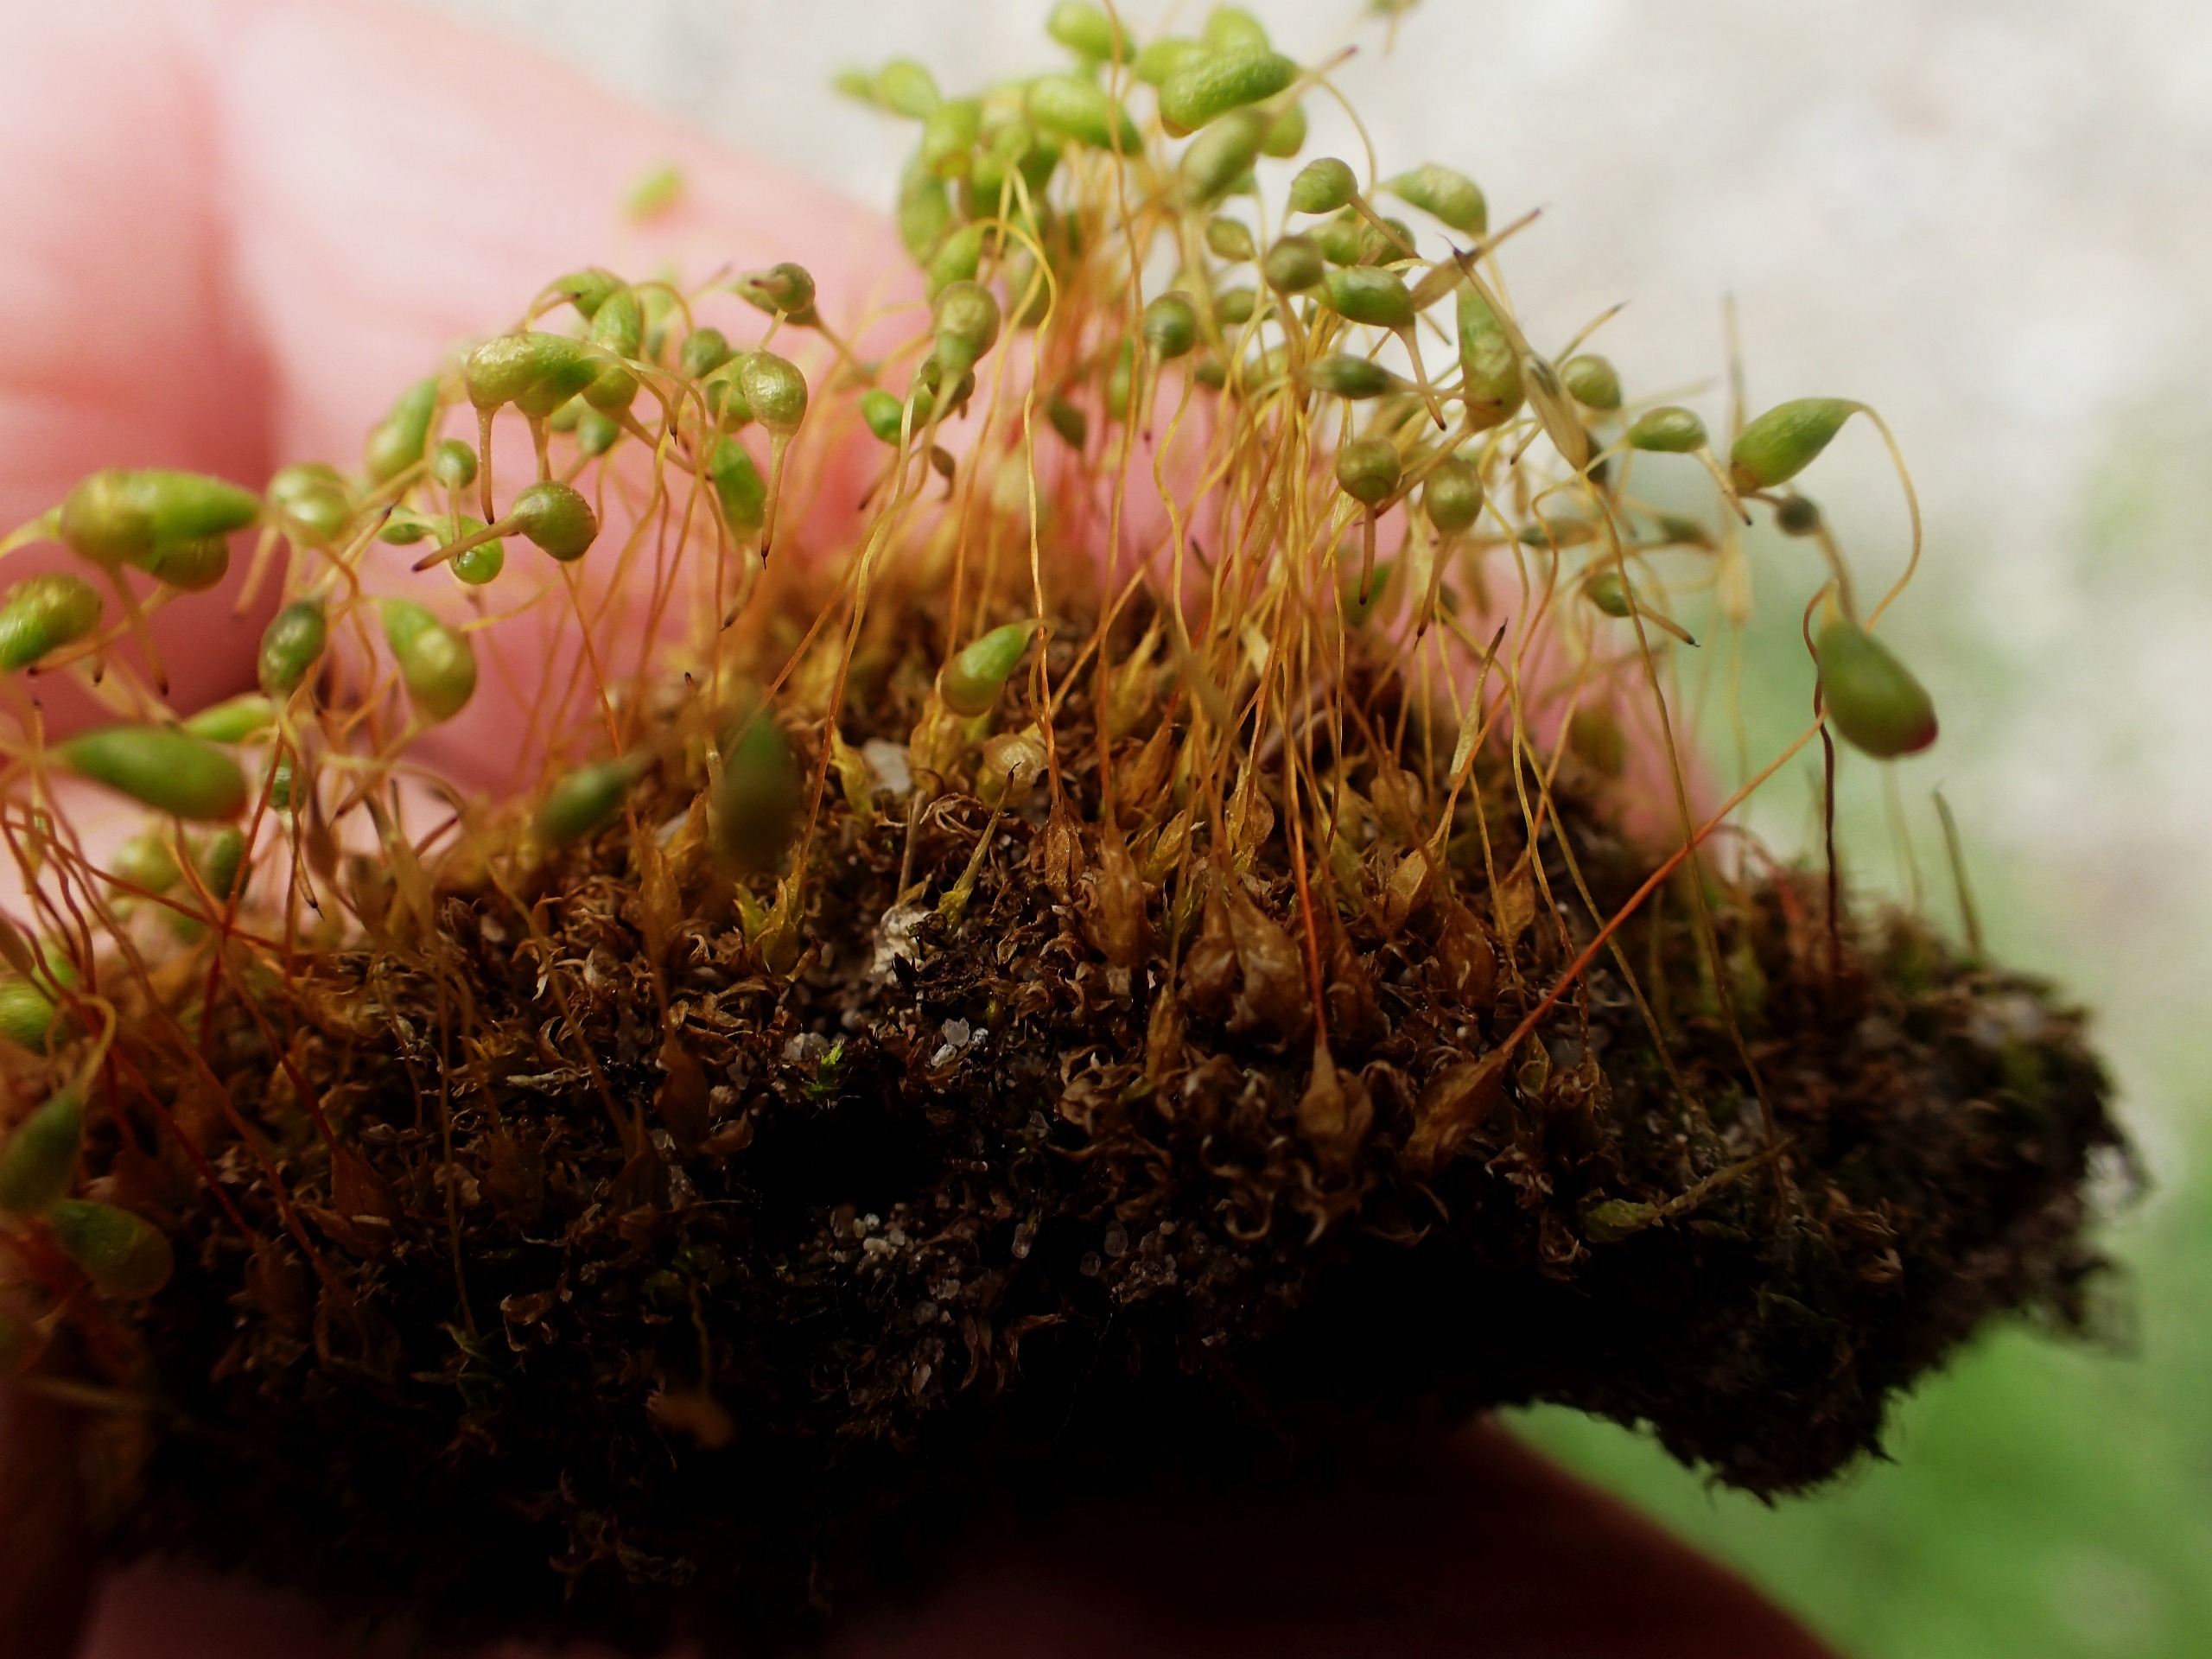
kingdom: Plantae
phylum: Bryophyta
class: Bryopsida
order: Funariales
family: Funariaceae
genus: Funaria
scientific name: Funaria hygrometrica
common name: Almindelig snobørste
